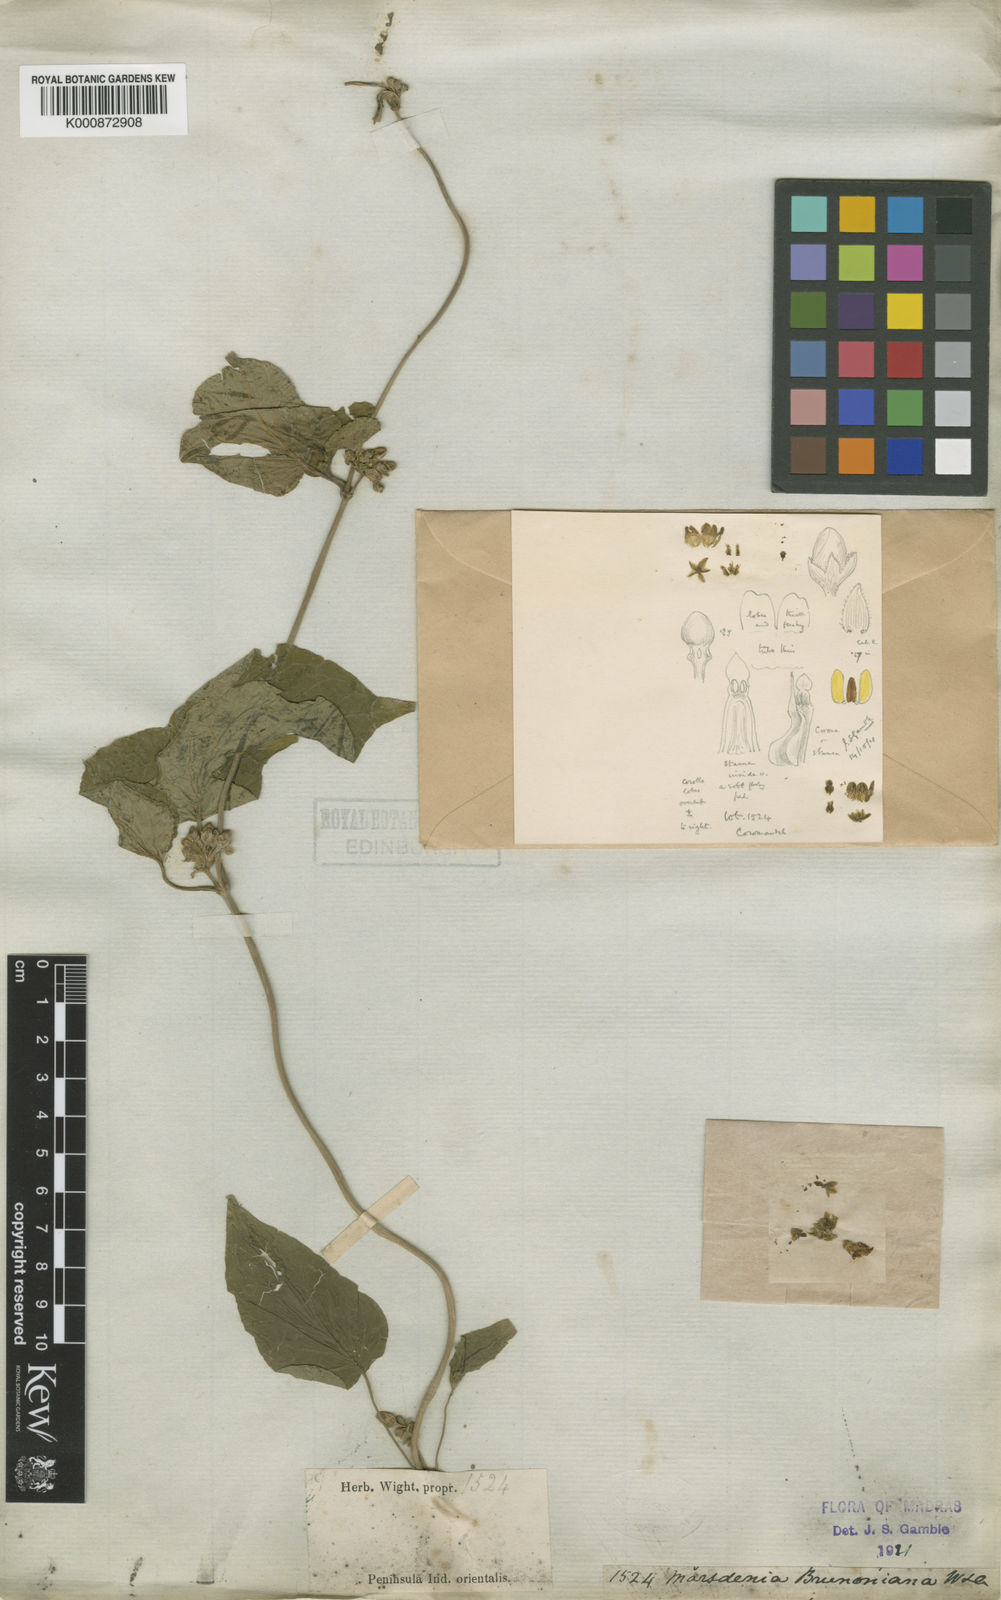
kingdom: Plantae
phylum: Tracheophyta
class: Magnoliopsida
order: Gentianales
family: Apocynaceae
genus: Marsdenia
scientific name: Marsdenia brunoniana
